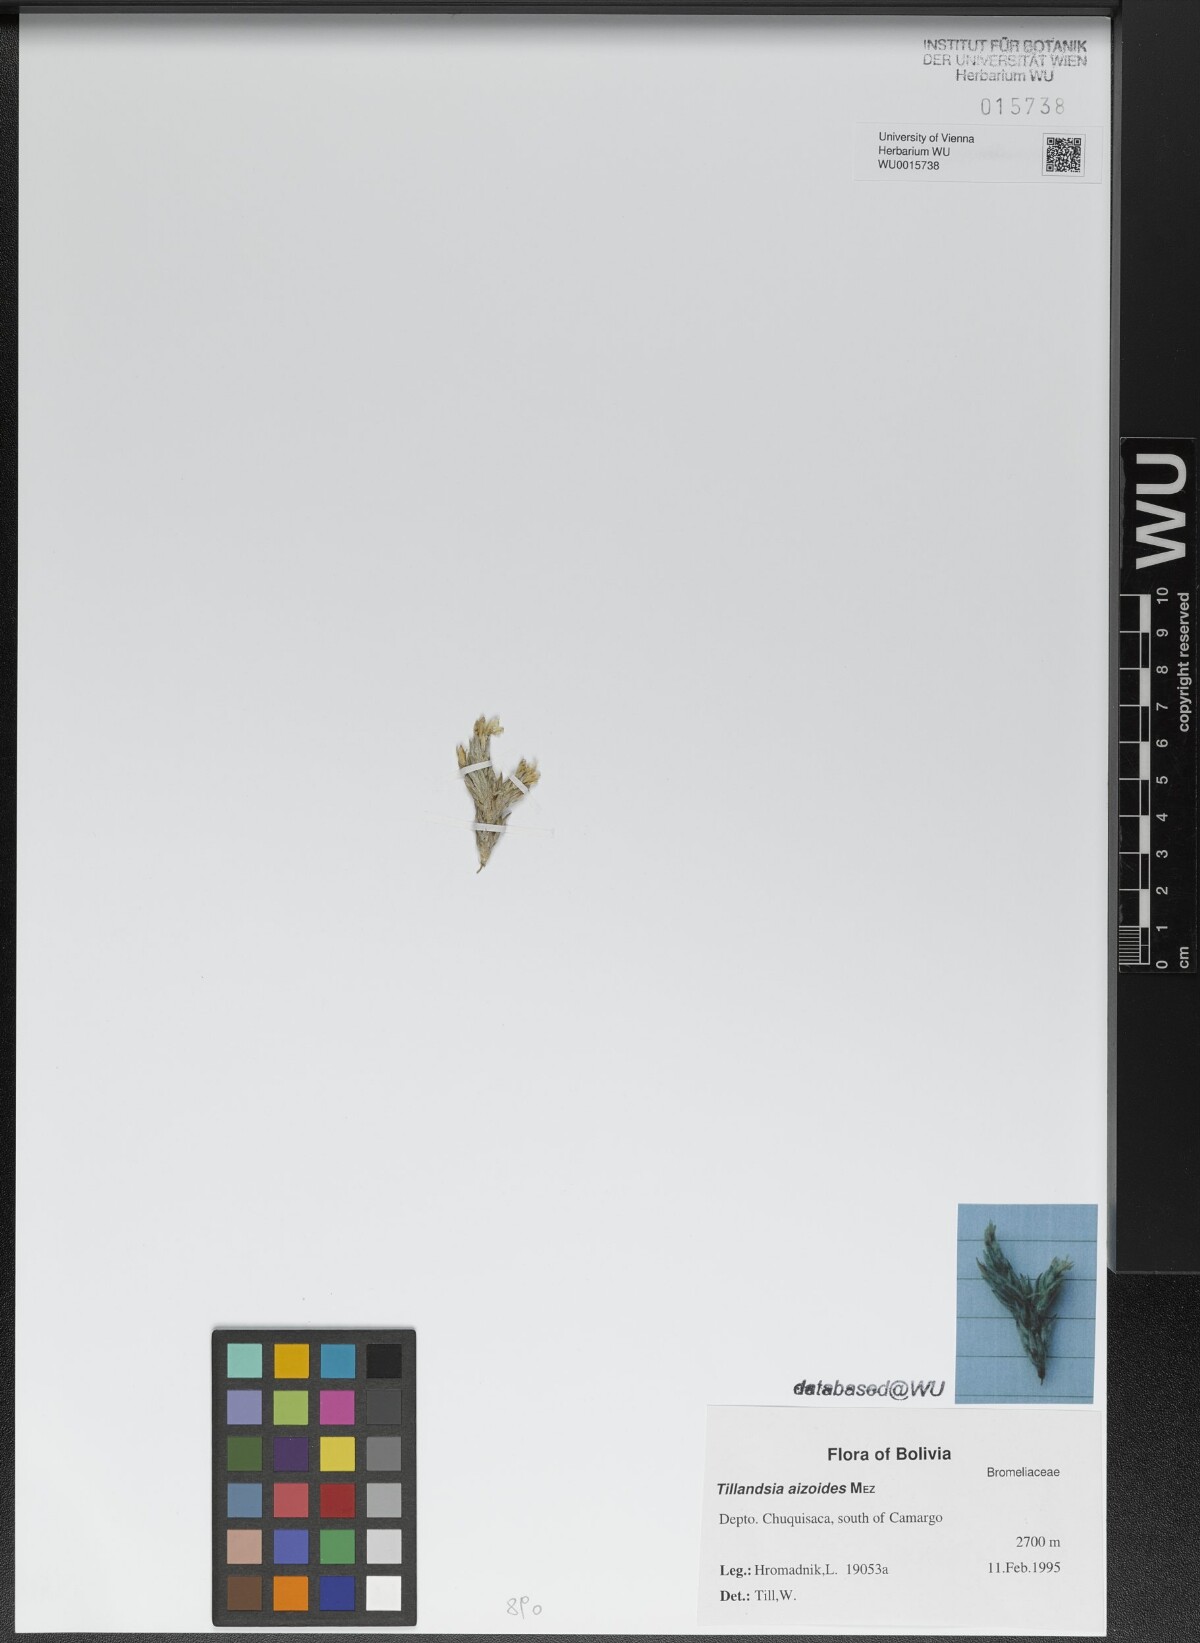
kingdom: Plantae
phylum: Tracheophyta
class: Liliopsida
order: Poales
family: Bromeliaceae
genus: Tillandsia
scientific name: Tillandsia aizoides
